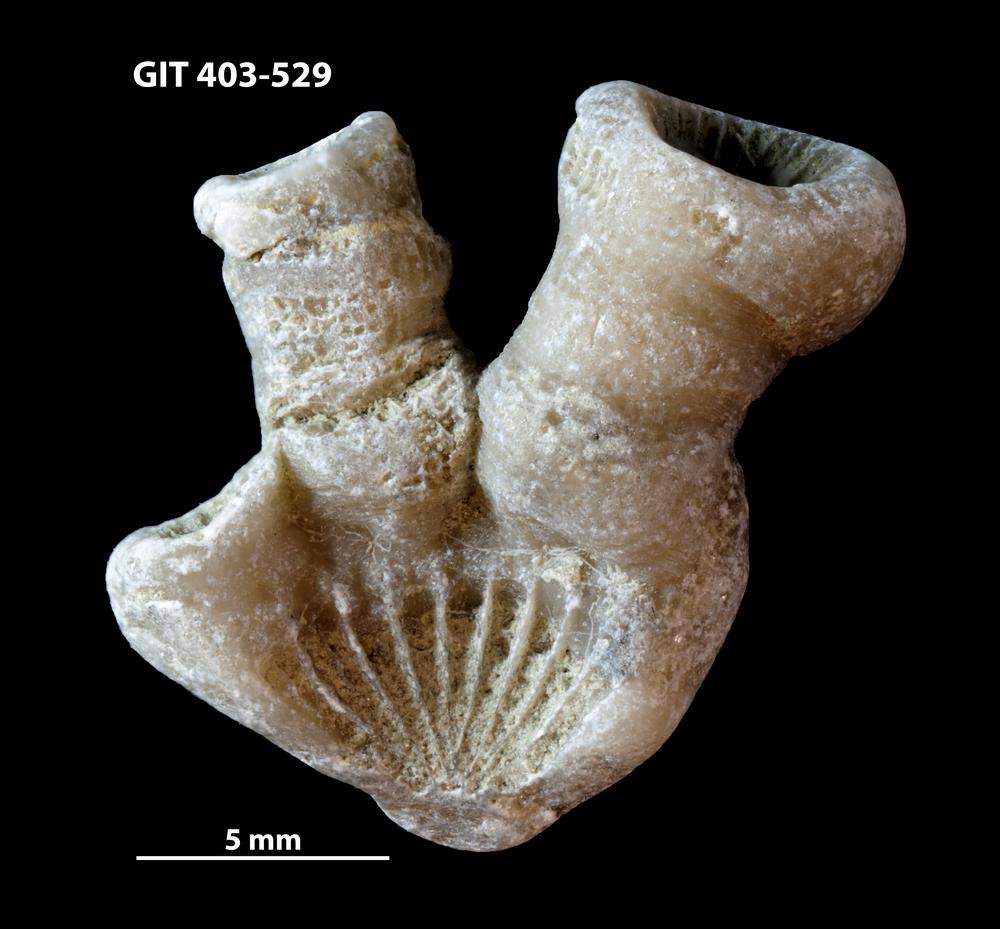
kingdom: Animalia
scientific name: Animalia
